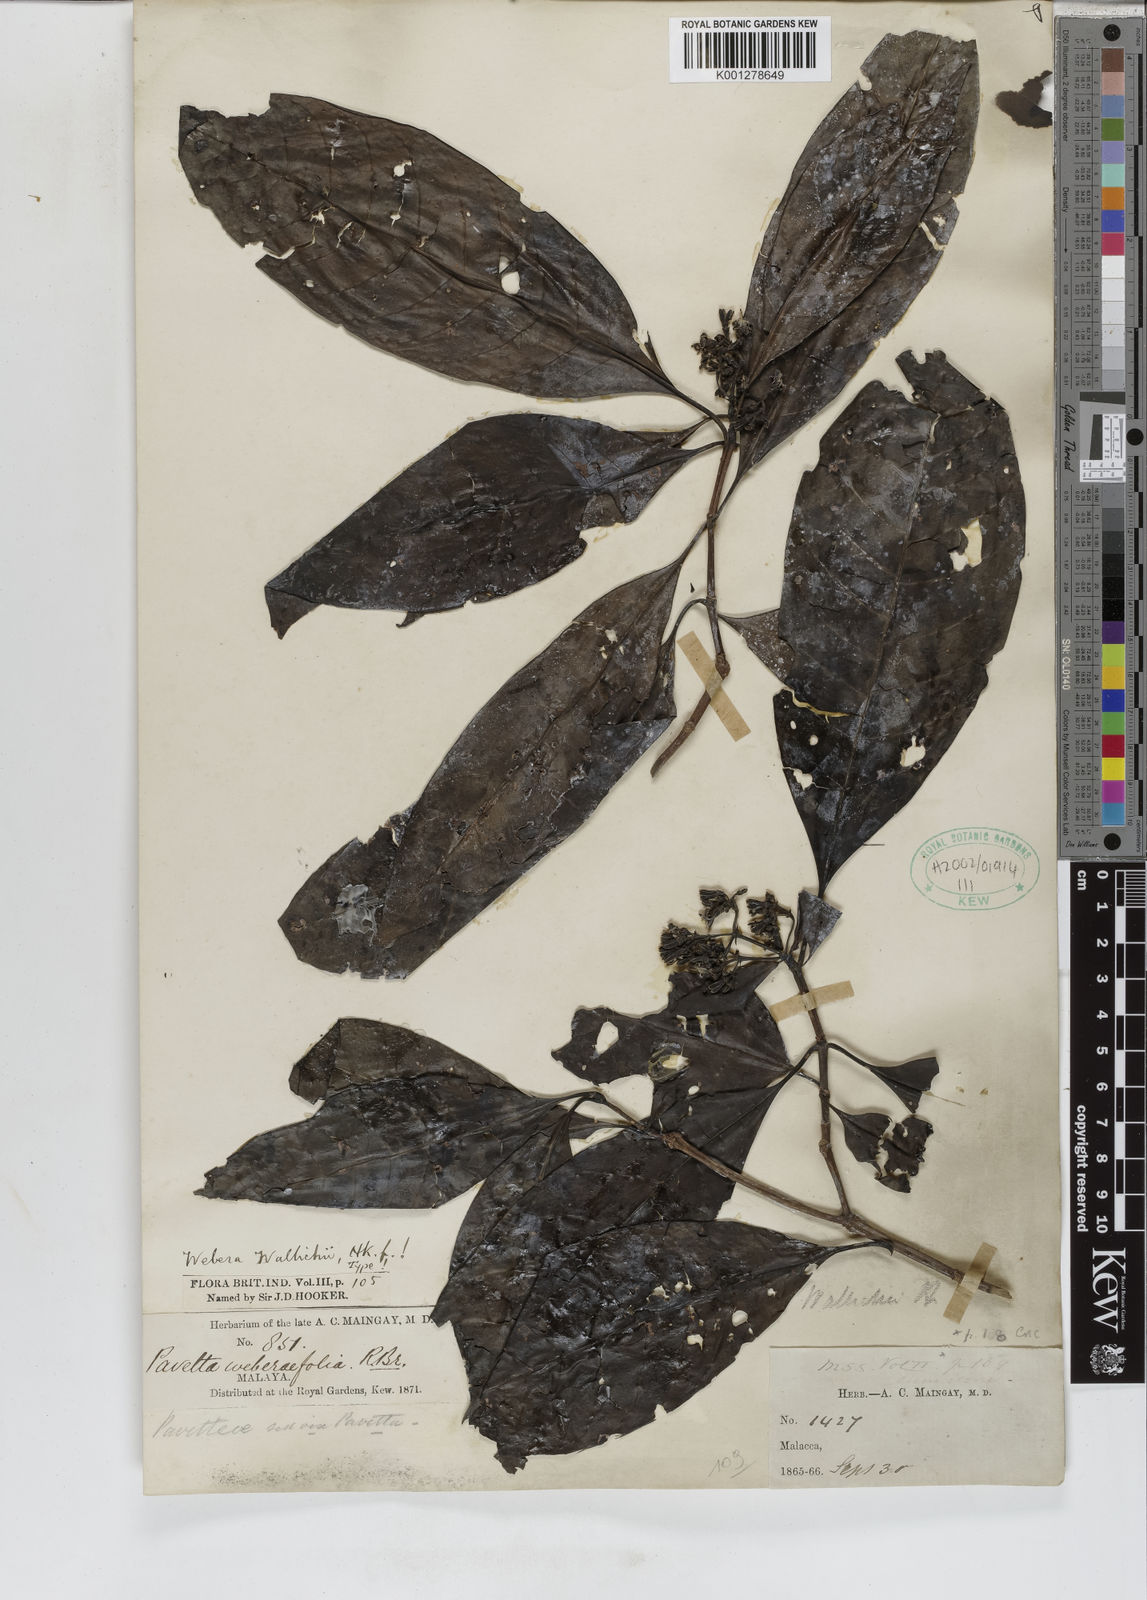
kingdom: Plantae
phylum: Tracheophyta
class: Magnoliopsida
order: Gentianales
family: Rubiaceae
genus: Tarenna
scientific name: Tarenna wallichii
